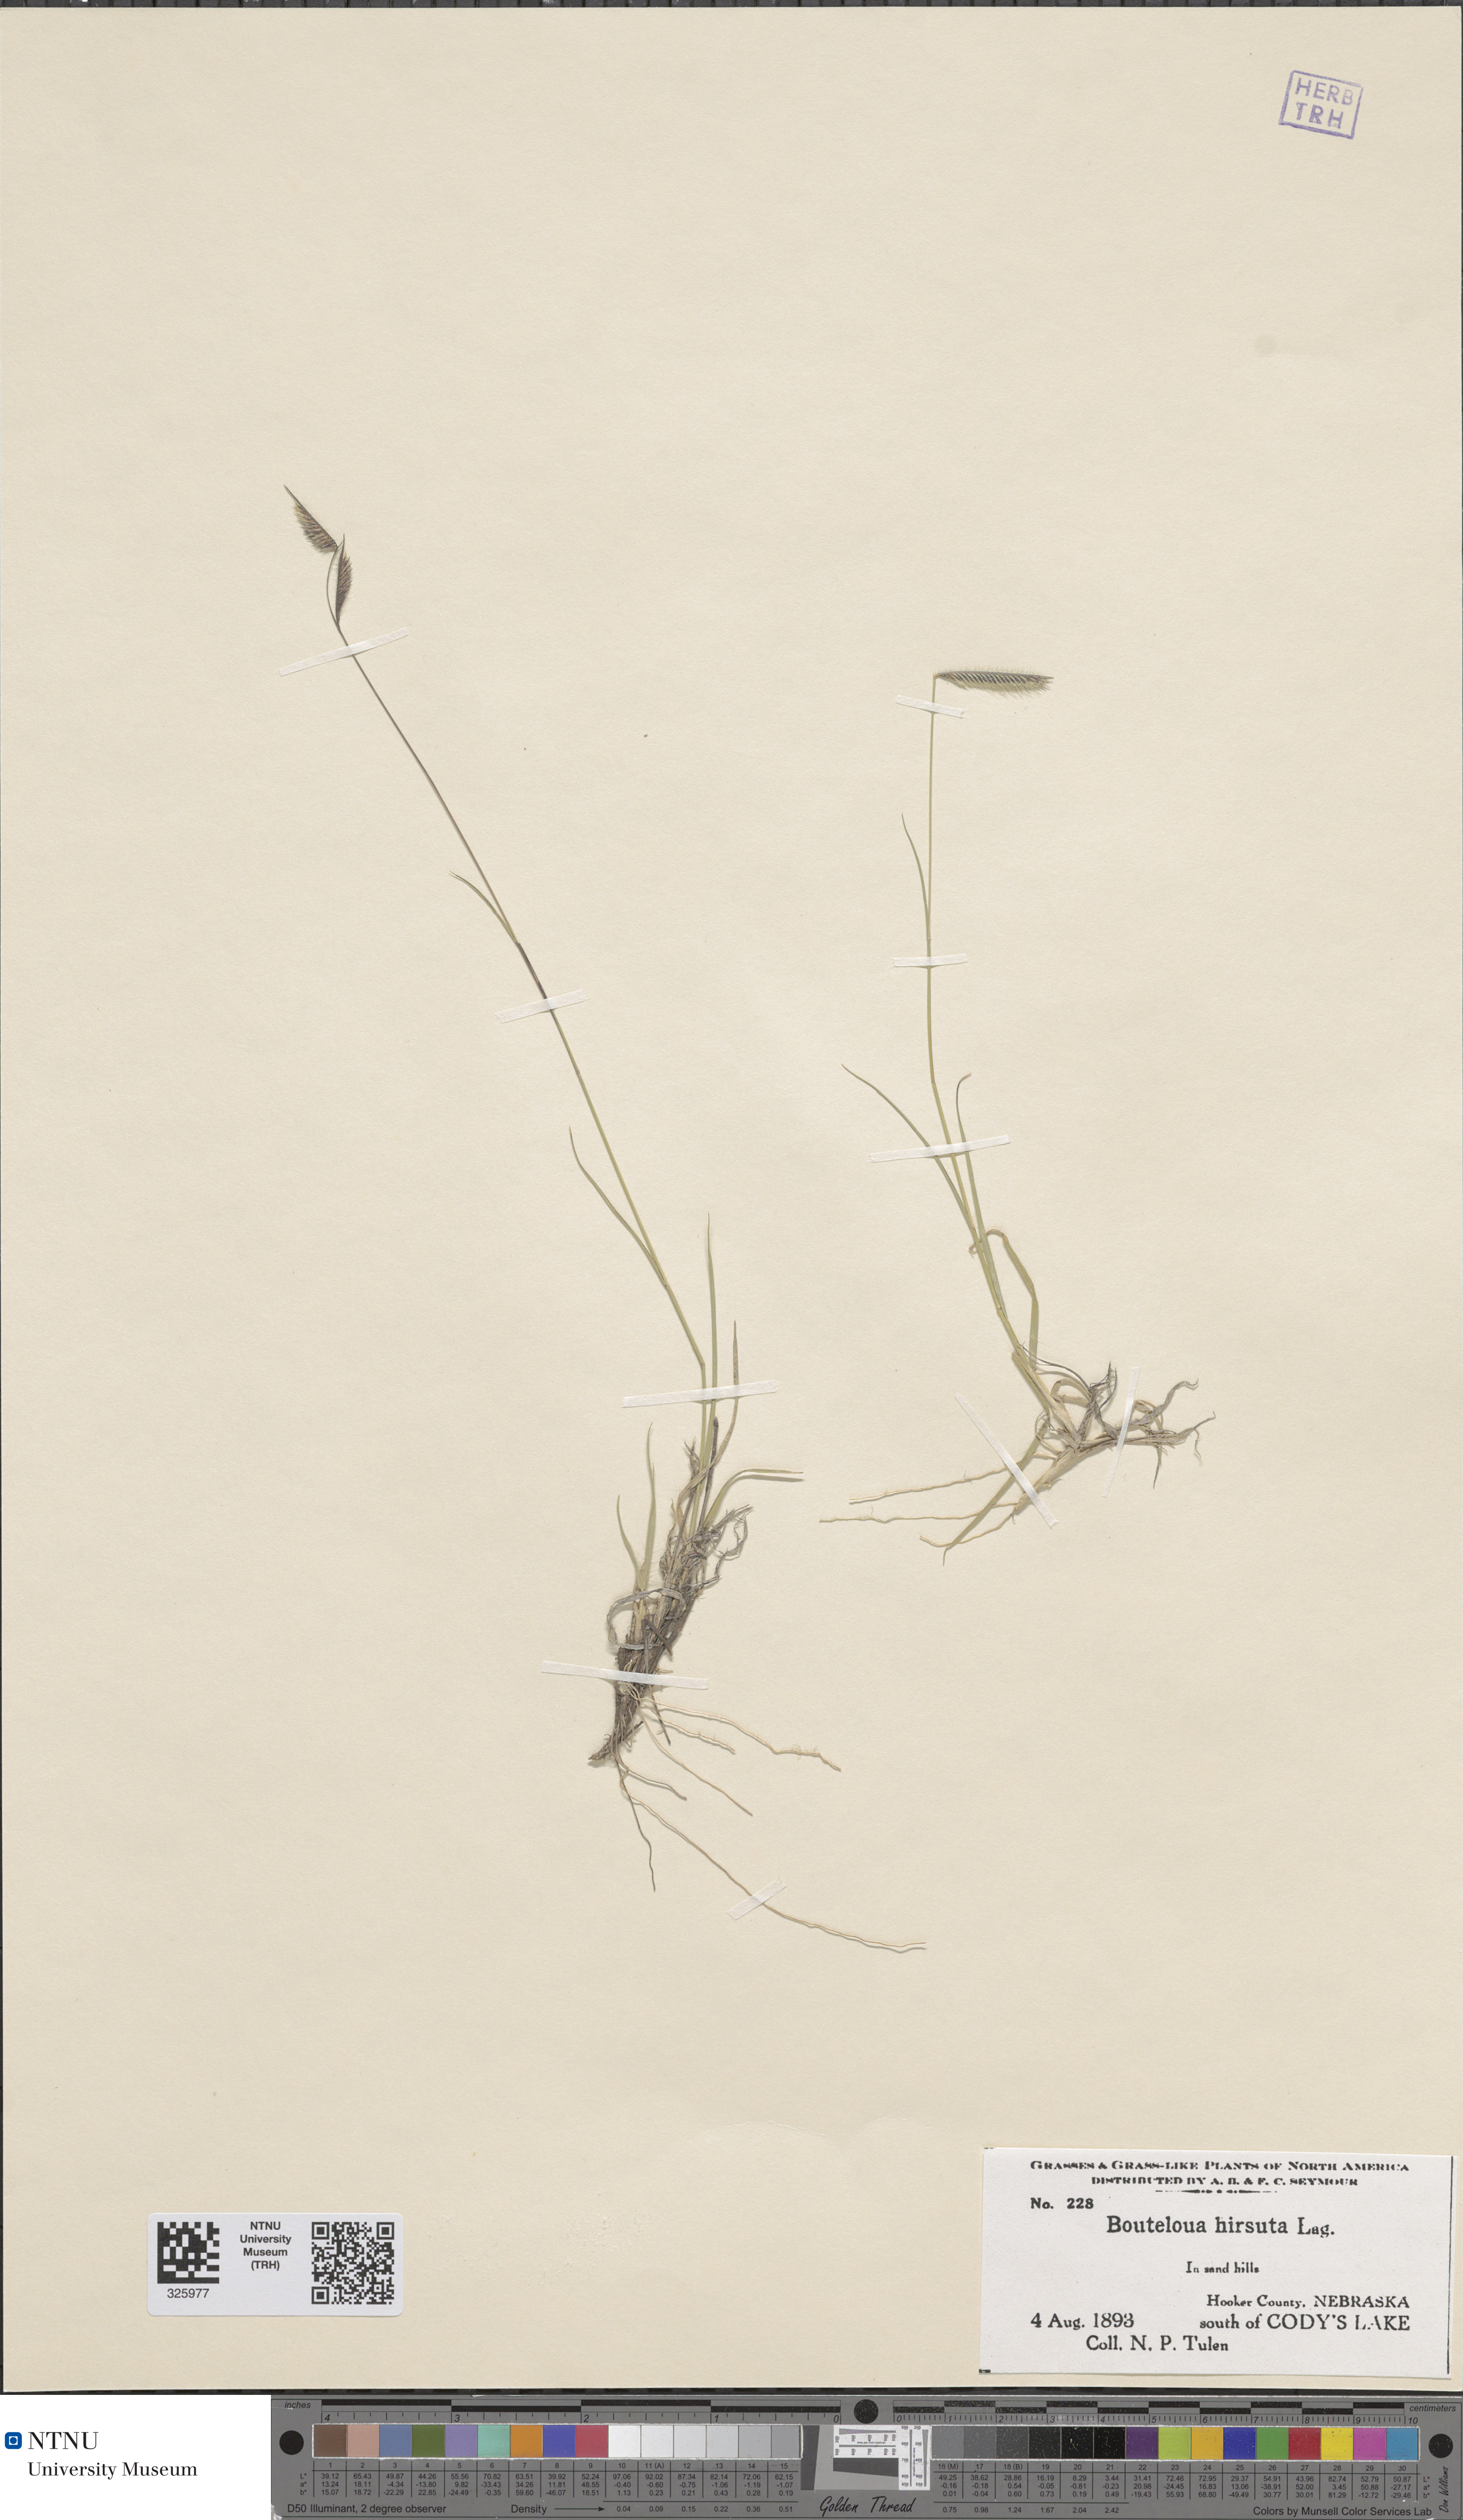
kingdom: Plantae
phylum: Tracheophyta
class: Liliopsida
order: Poales
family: Poaceae
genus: Bouteloua
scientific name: Bouteloua hirsuta
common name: Hairy grama
